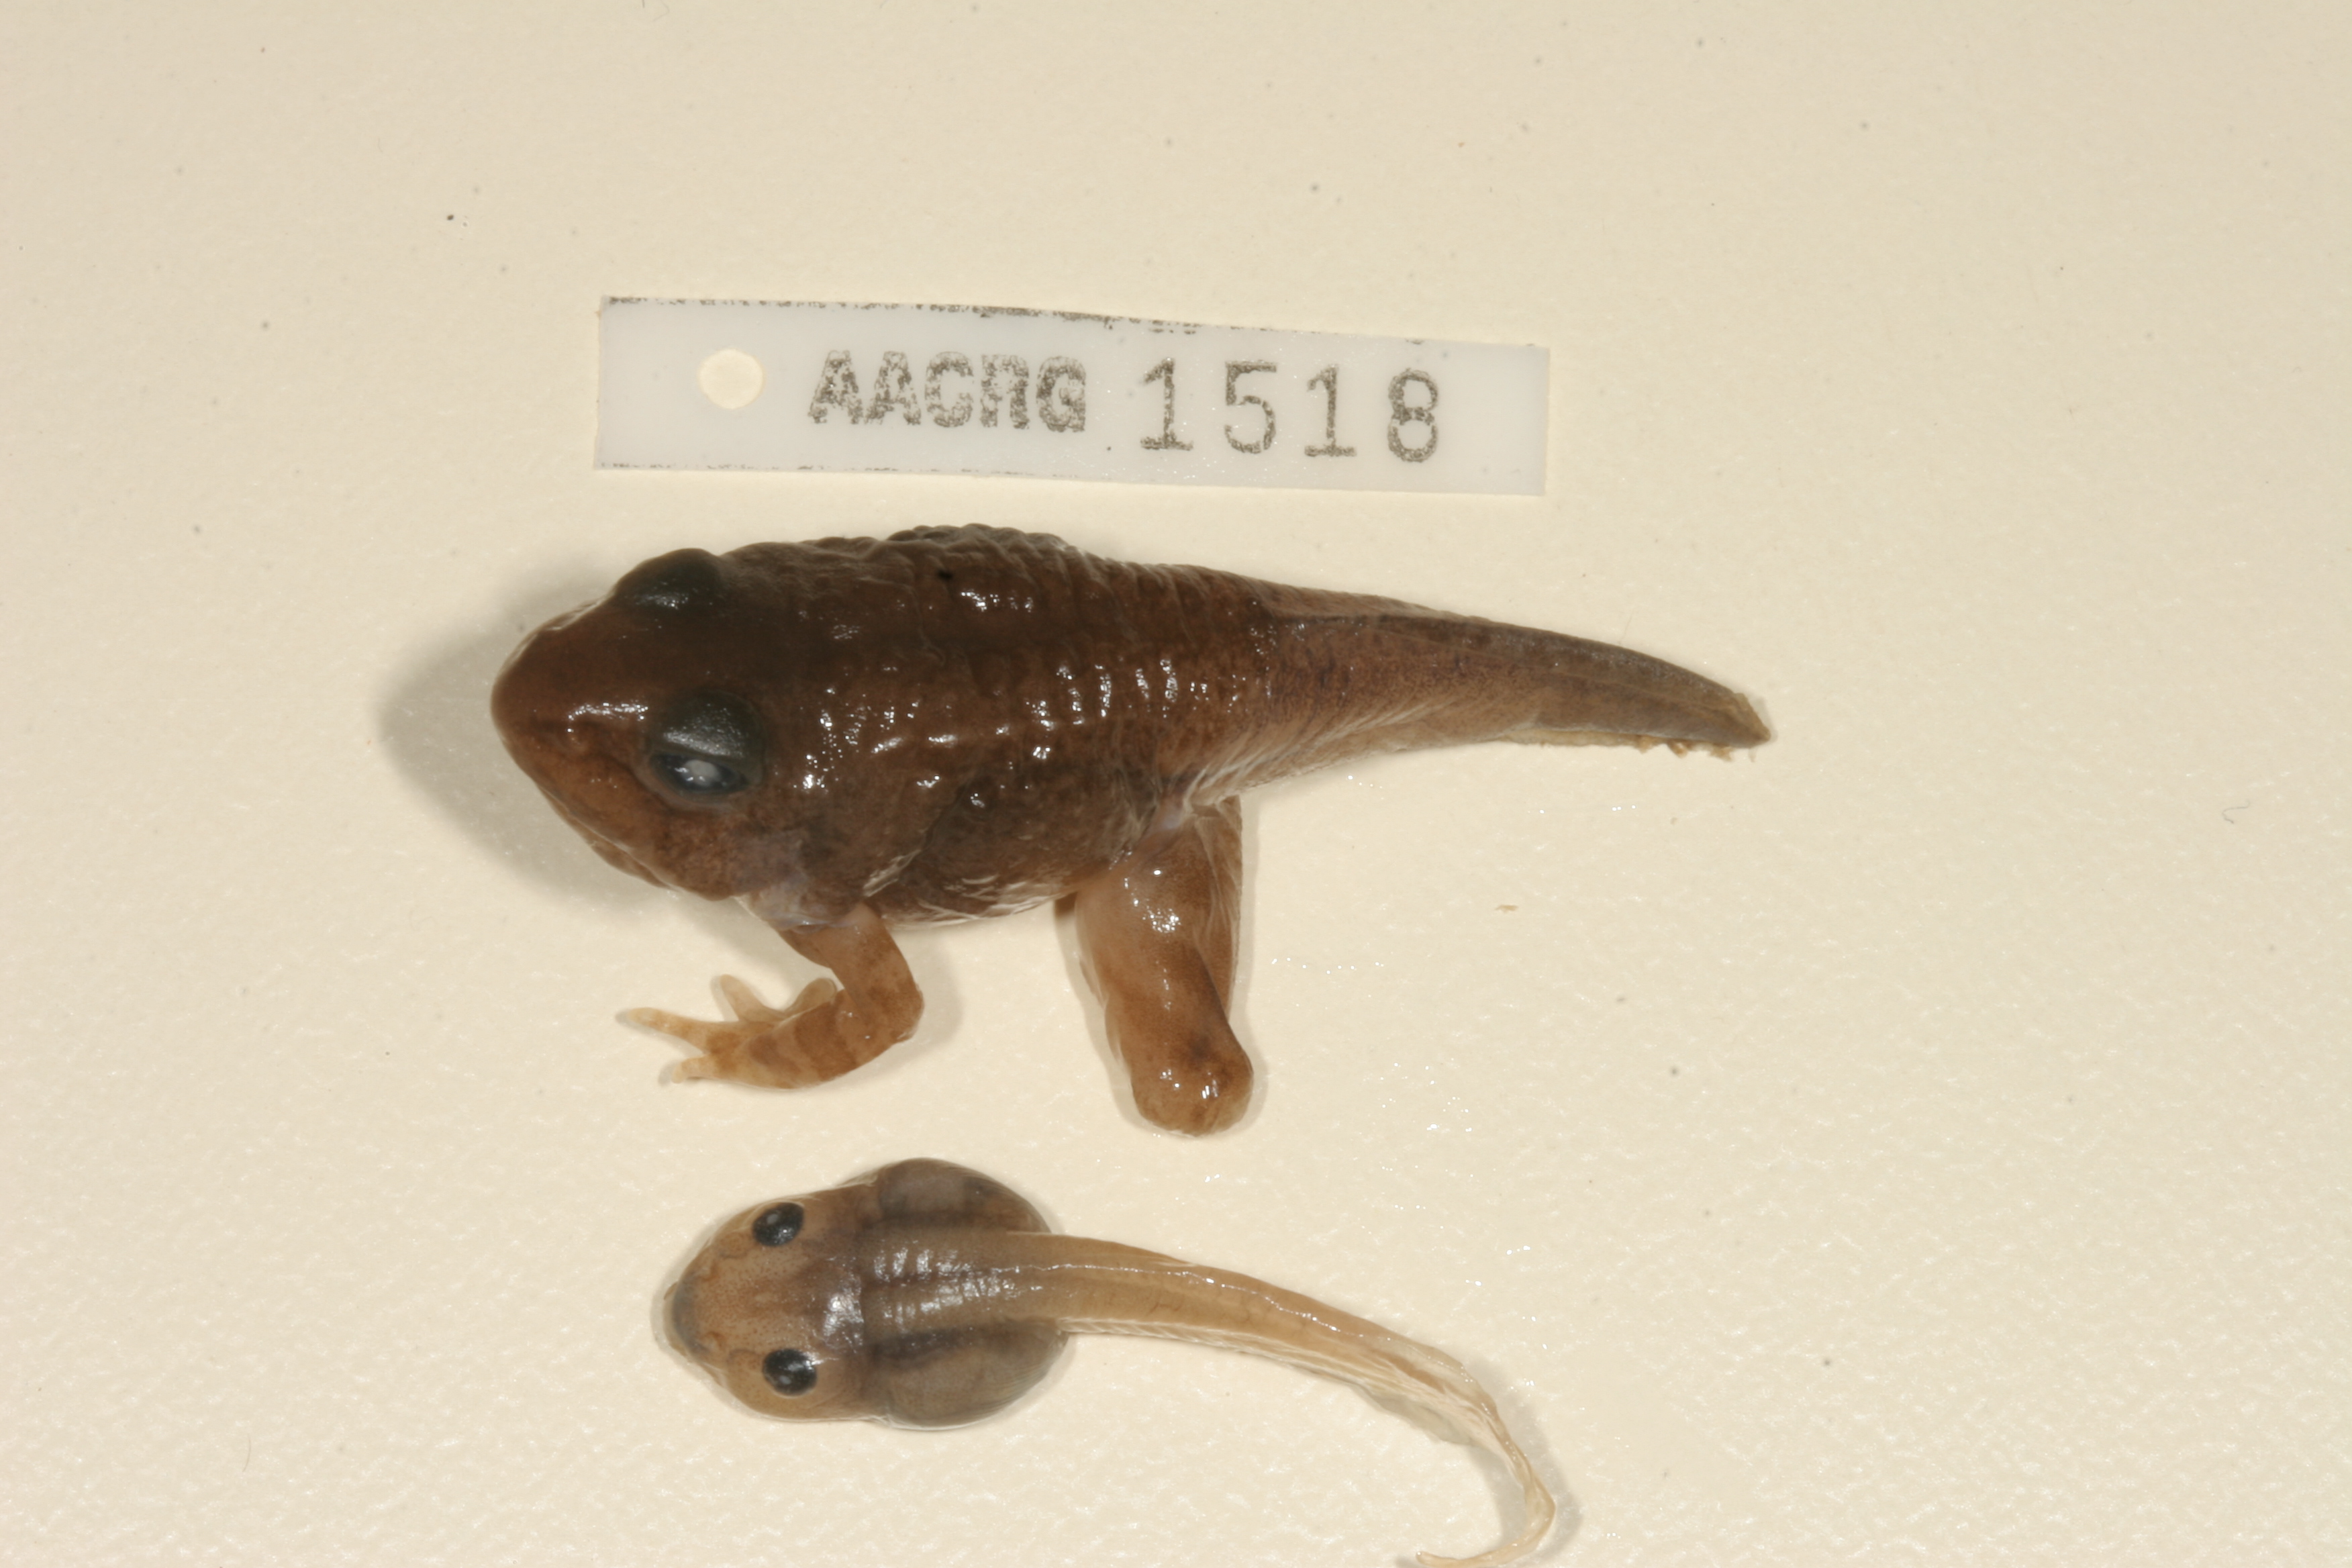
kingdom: Animalia
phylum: Chordata
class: Amphibia
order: Anura
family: Ptychadenidae
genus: Hildebrandtia
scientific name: Hildebrandtia ornata
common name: Ornate frog
